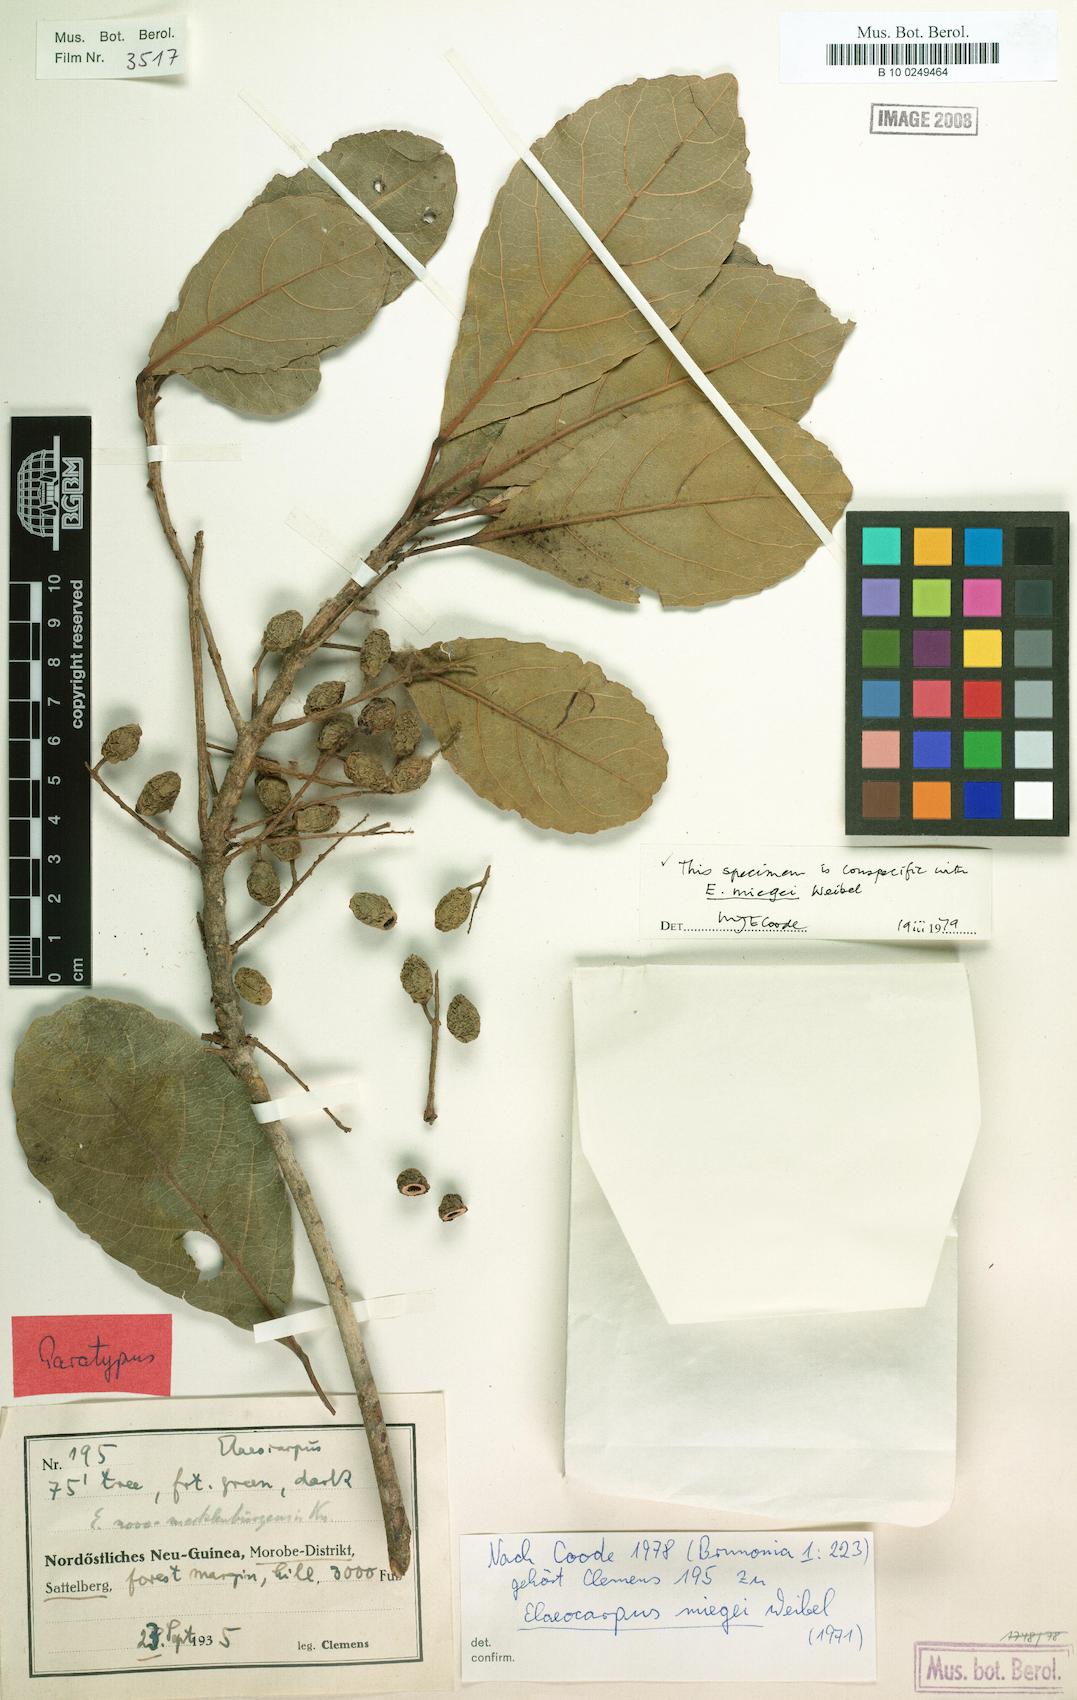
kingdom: Plantae
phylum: Tracheophyta
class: Magnoliopsida
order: Oxalidales
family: Elaeocarpaceae
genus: Elaeocarpus
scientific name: Elaeocarpus miegei
